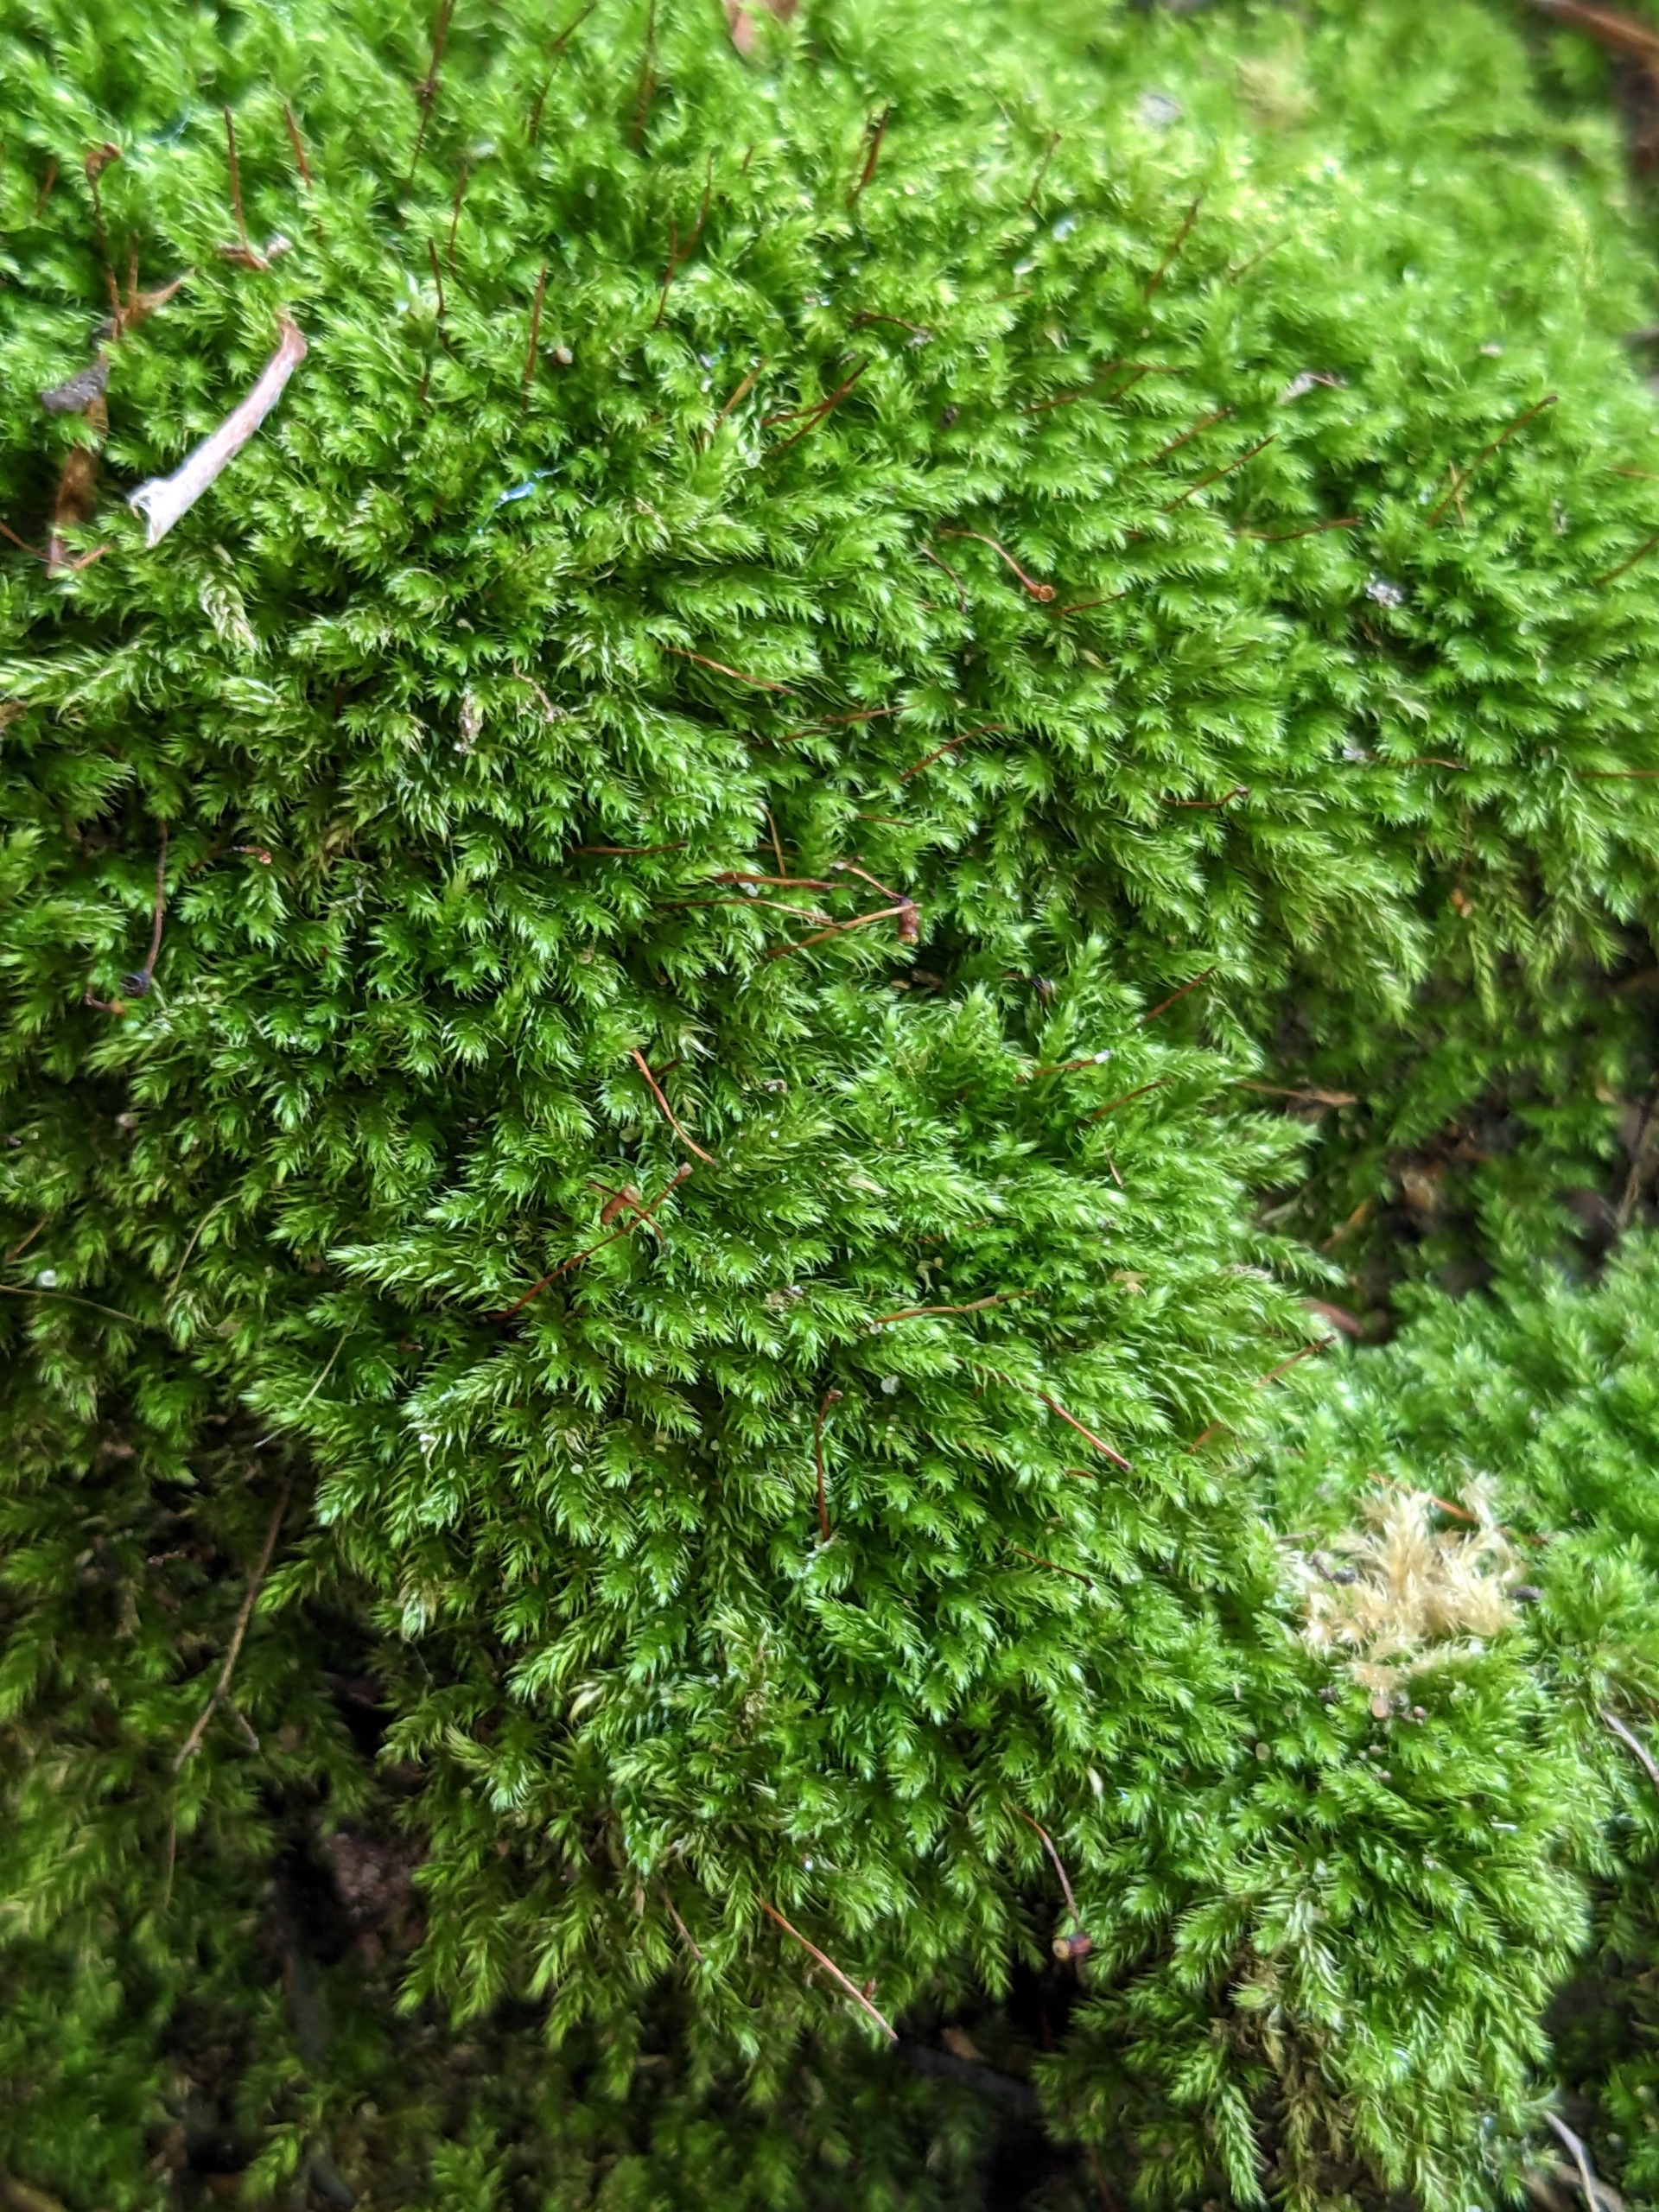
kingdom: Plantae
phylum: Bryophyta
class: Bryopsida
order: Hypnales
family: Brachytheciaceae
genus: Brachytheciastrum
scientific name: Brachytheciastrum velutinum
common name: Fløjls-kortkapsel
